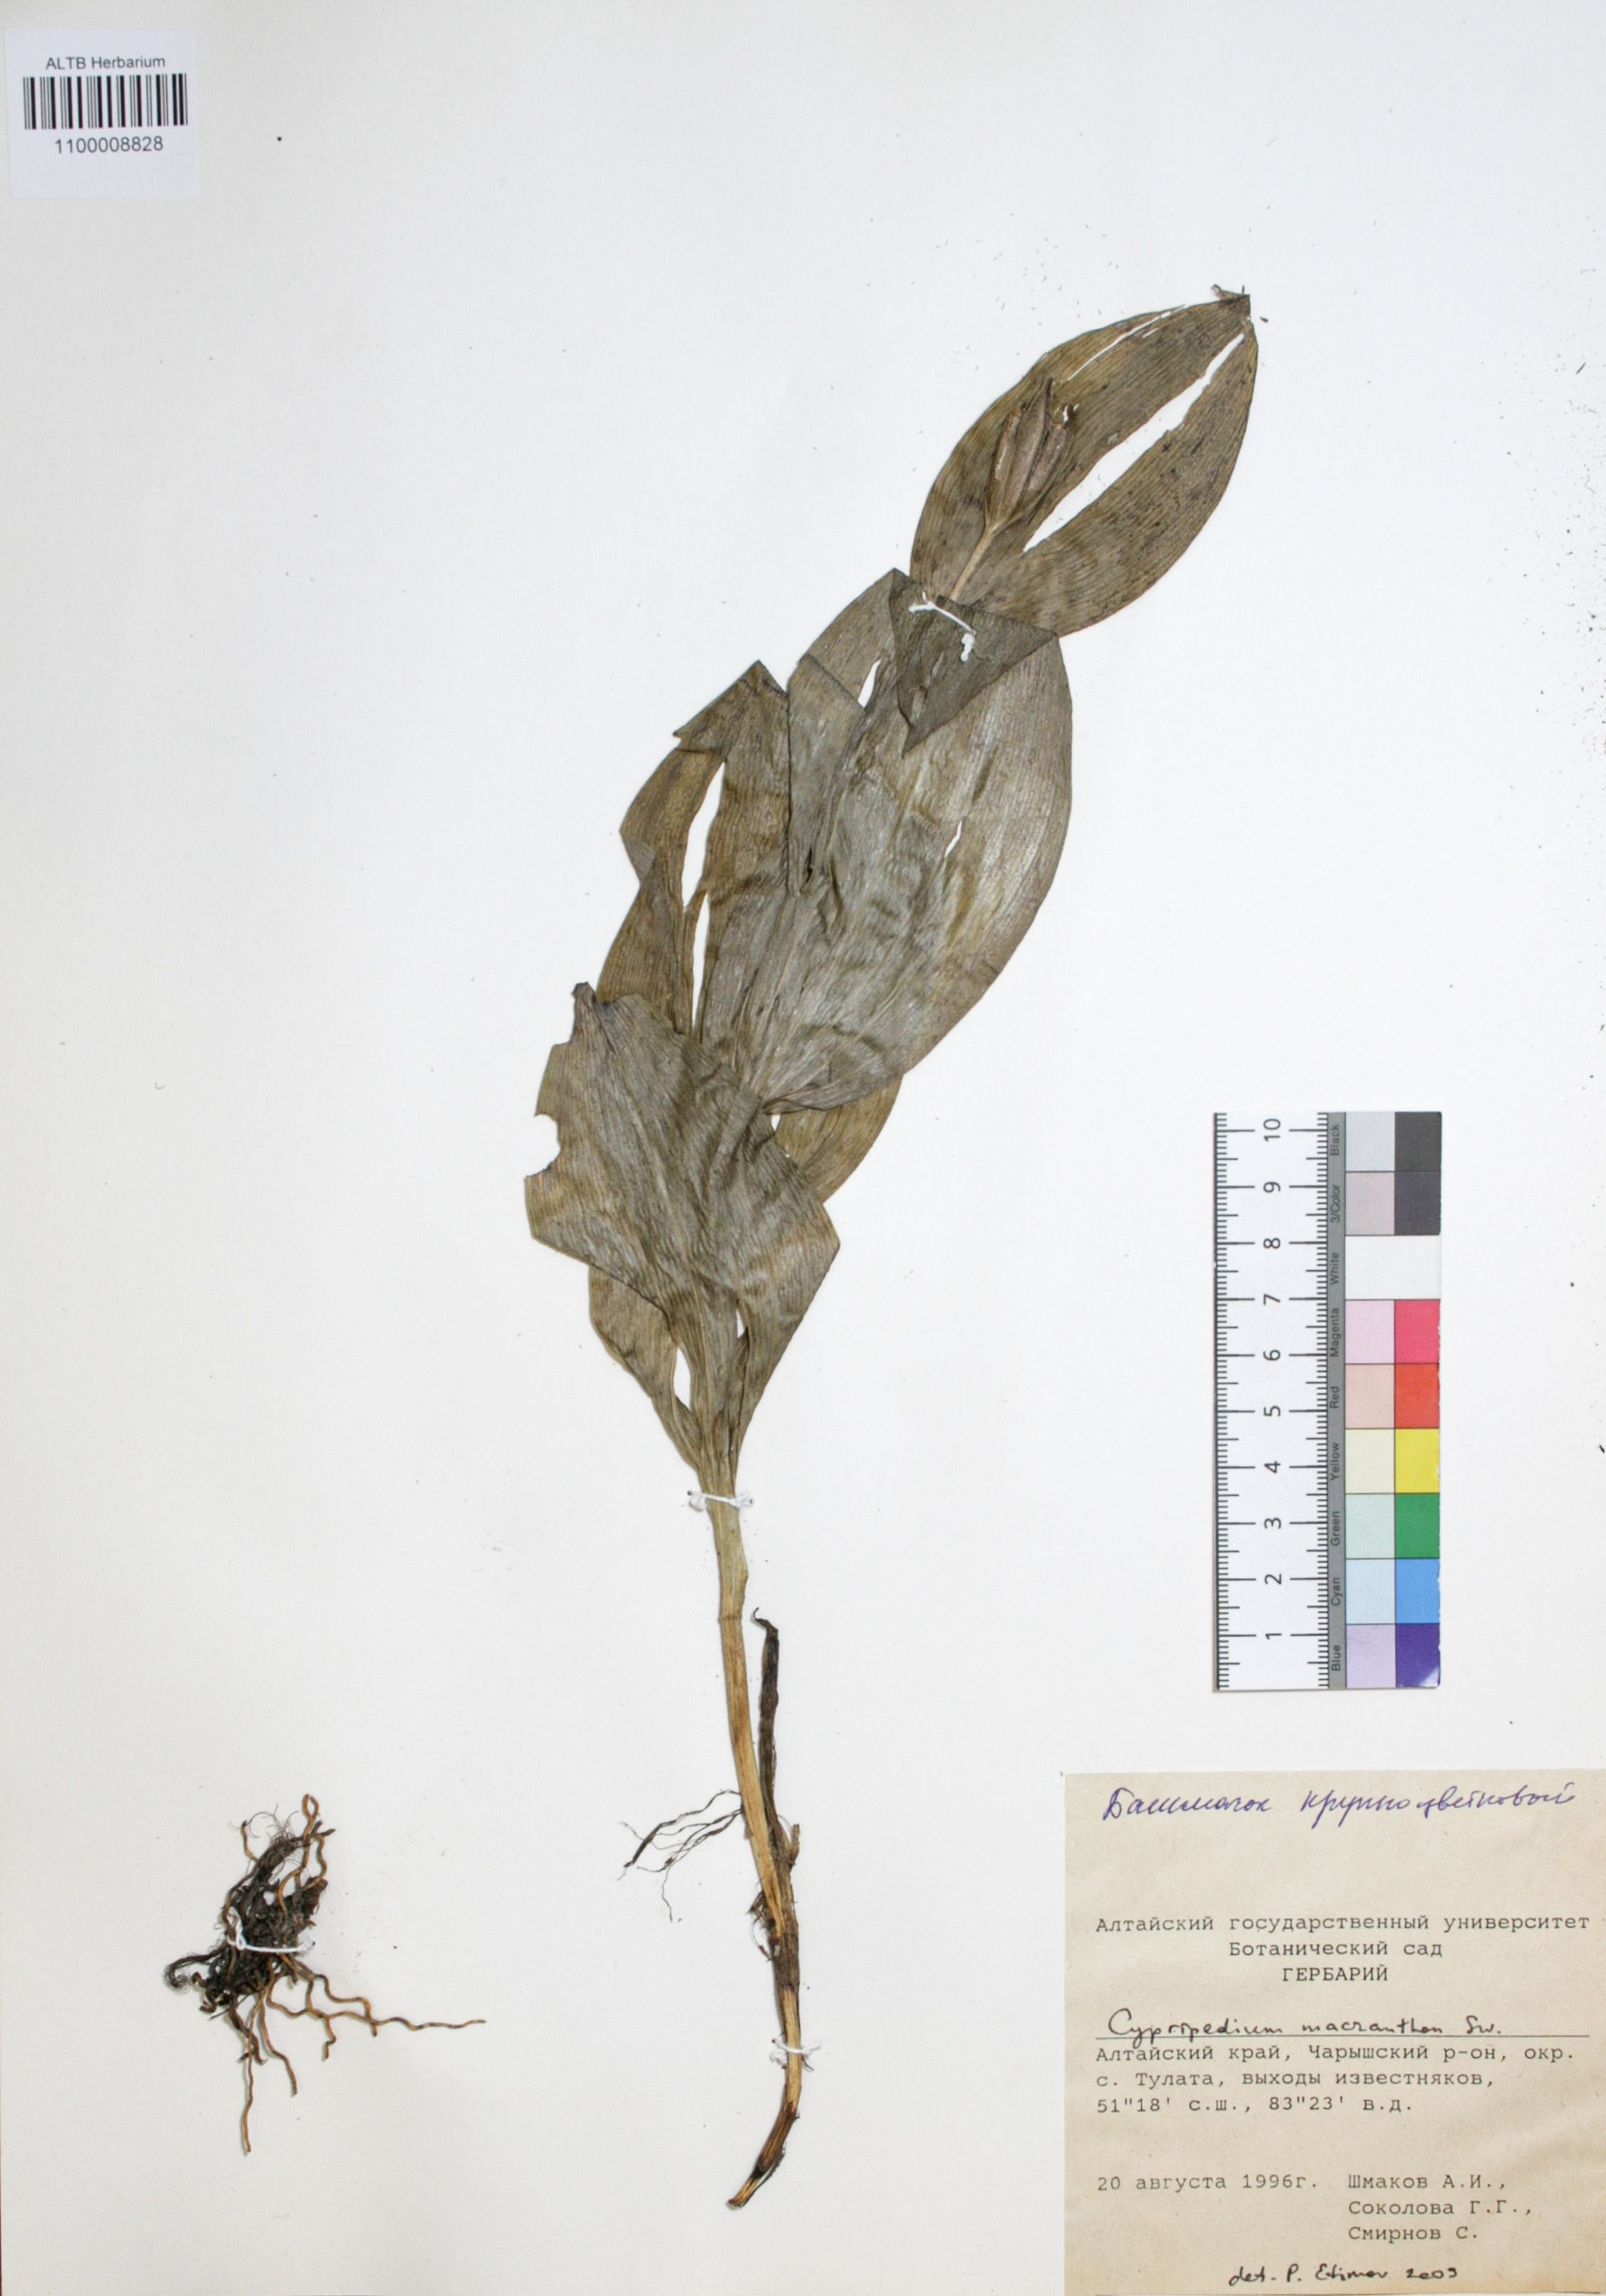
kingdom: Plantae
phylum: Tracheophyta
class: Liliopsida
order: Asparagales
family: Orchidaceae
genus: Cypripedium
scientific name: Cypripedium macranthon
